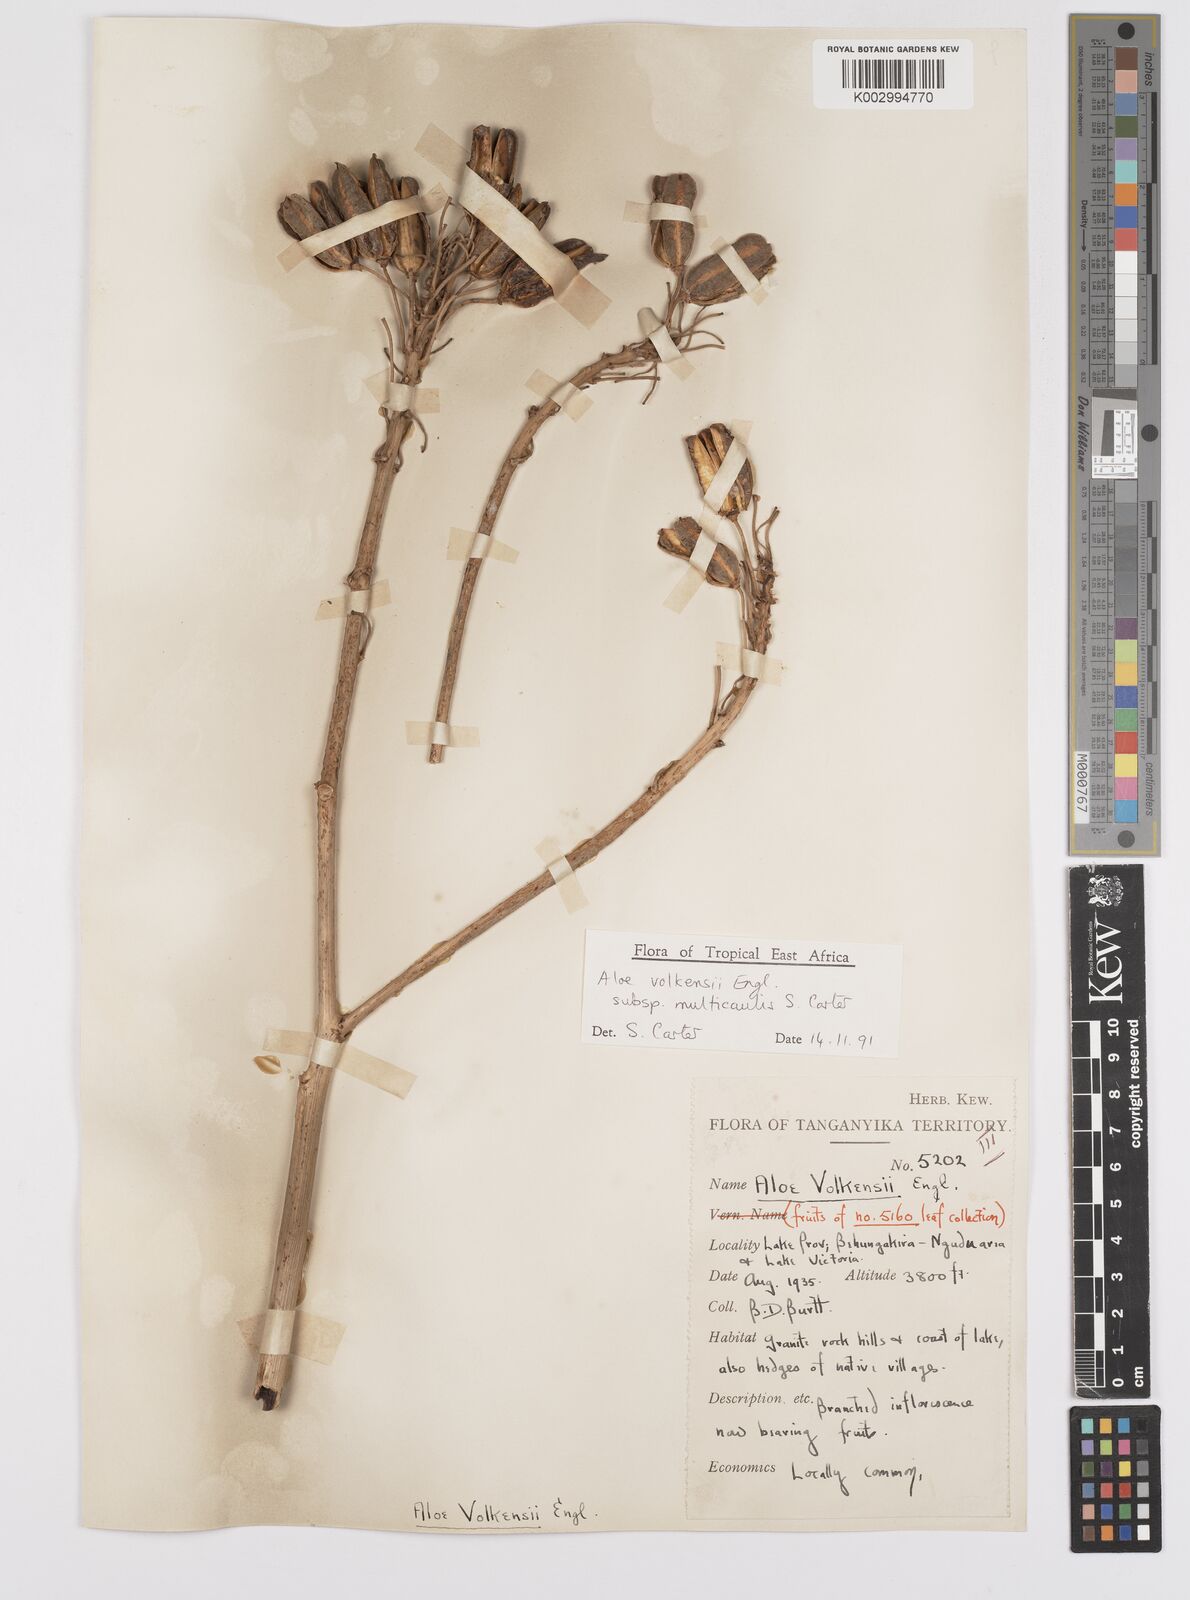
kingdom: Plantae
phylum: Tracheophyta
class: Liliopsida
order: Asparagales
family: Asphodelaceae
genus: Aloe
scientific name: Aloe volkensii
